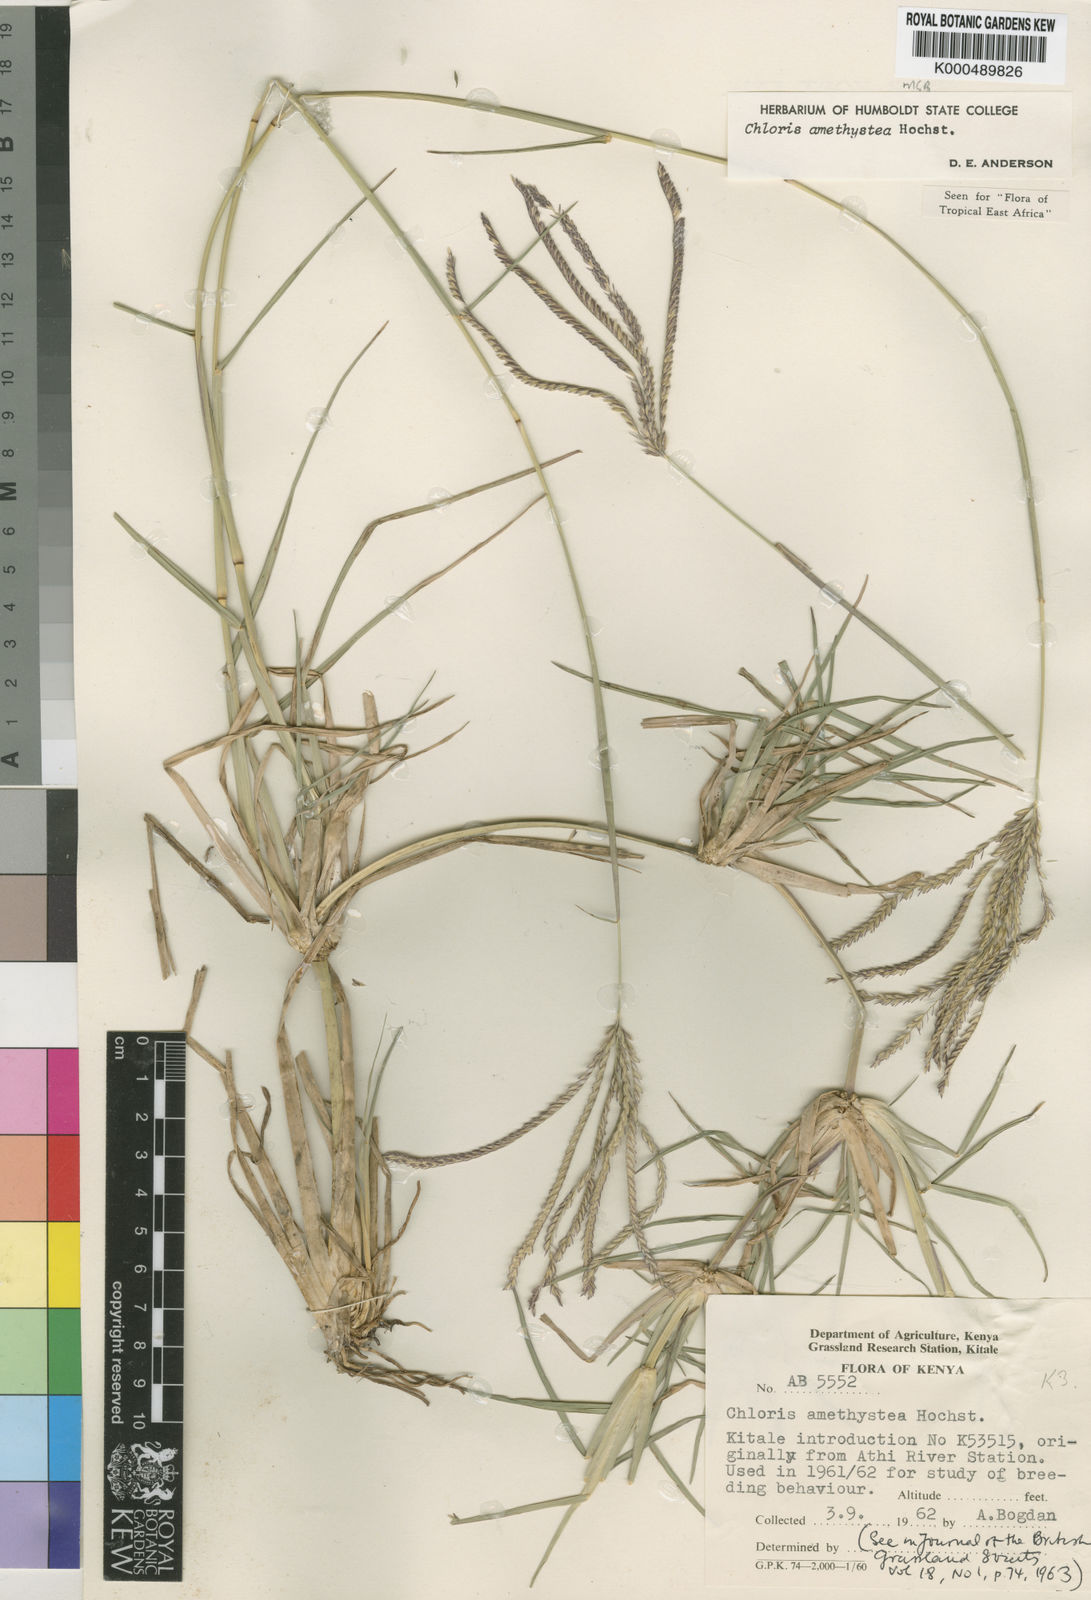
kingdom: Plantae
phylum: Tracheophyta
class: Liliopsida
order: Poales
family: Poaceae
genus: Chloris
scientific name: Chloris amethystea
